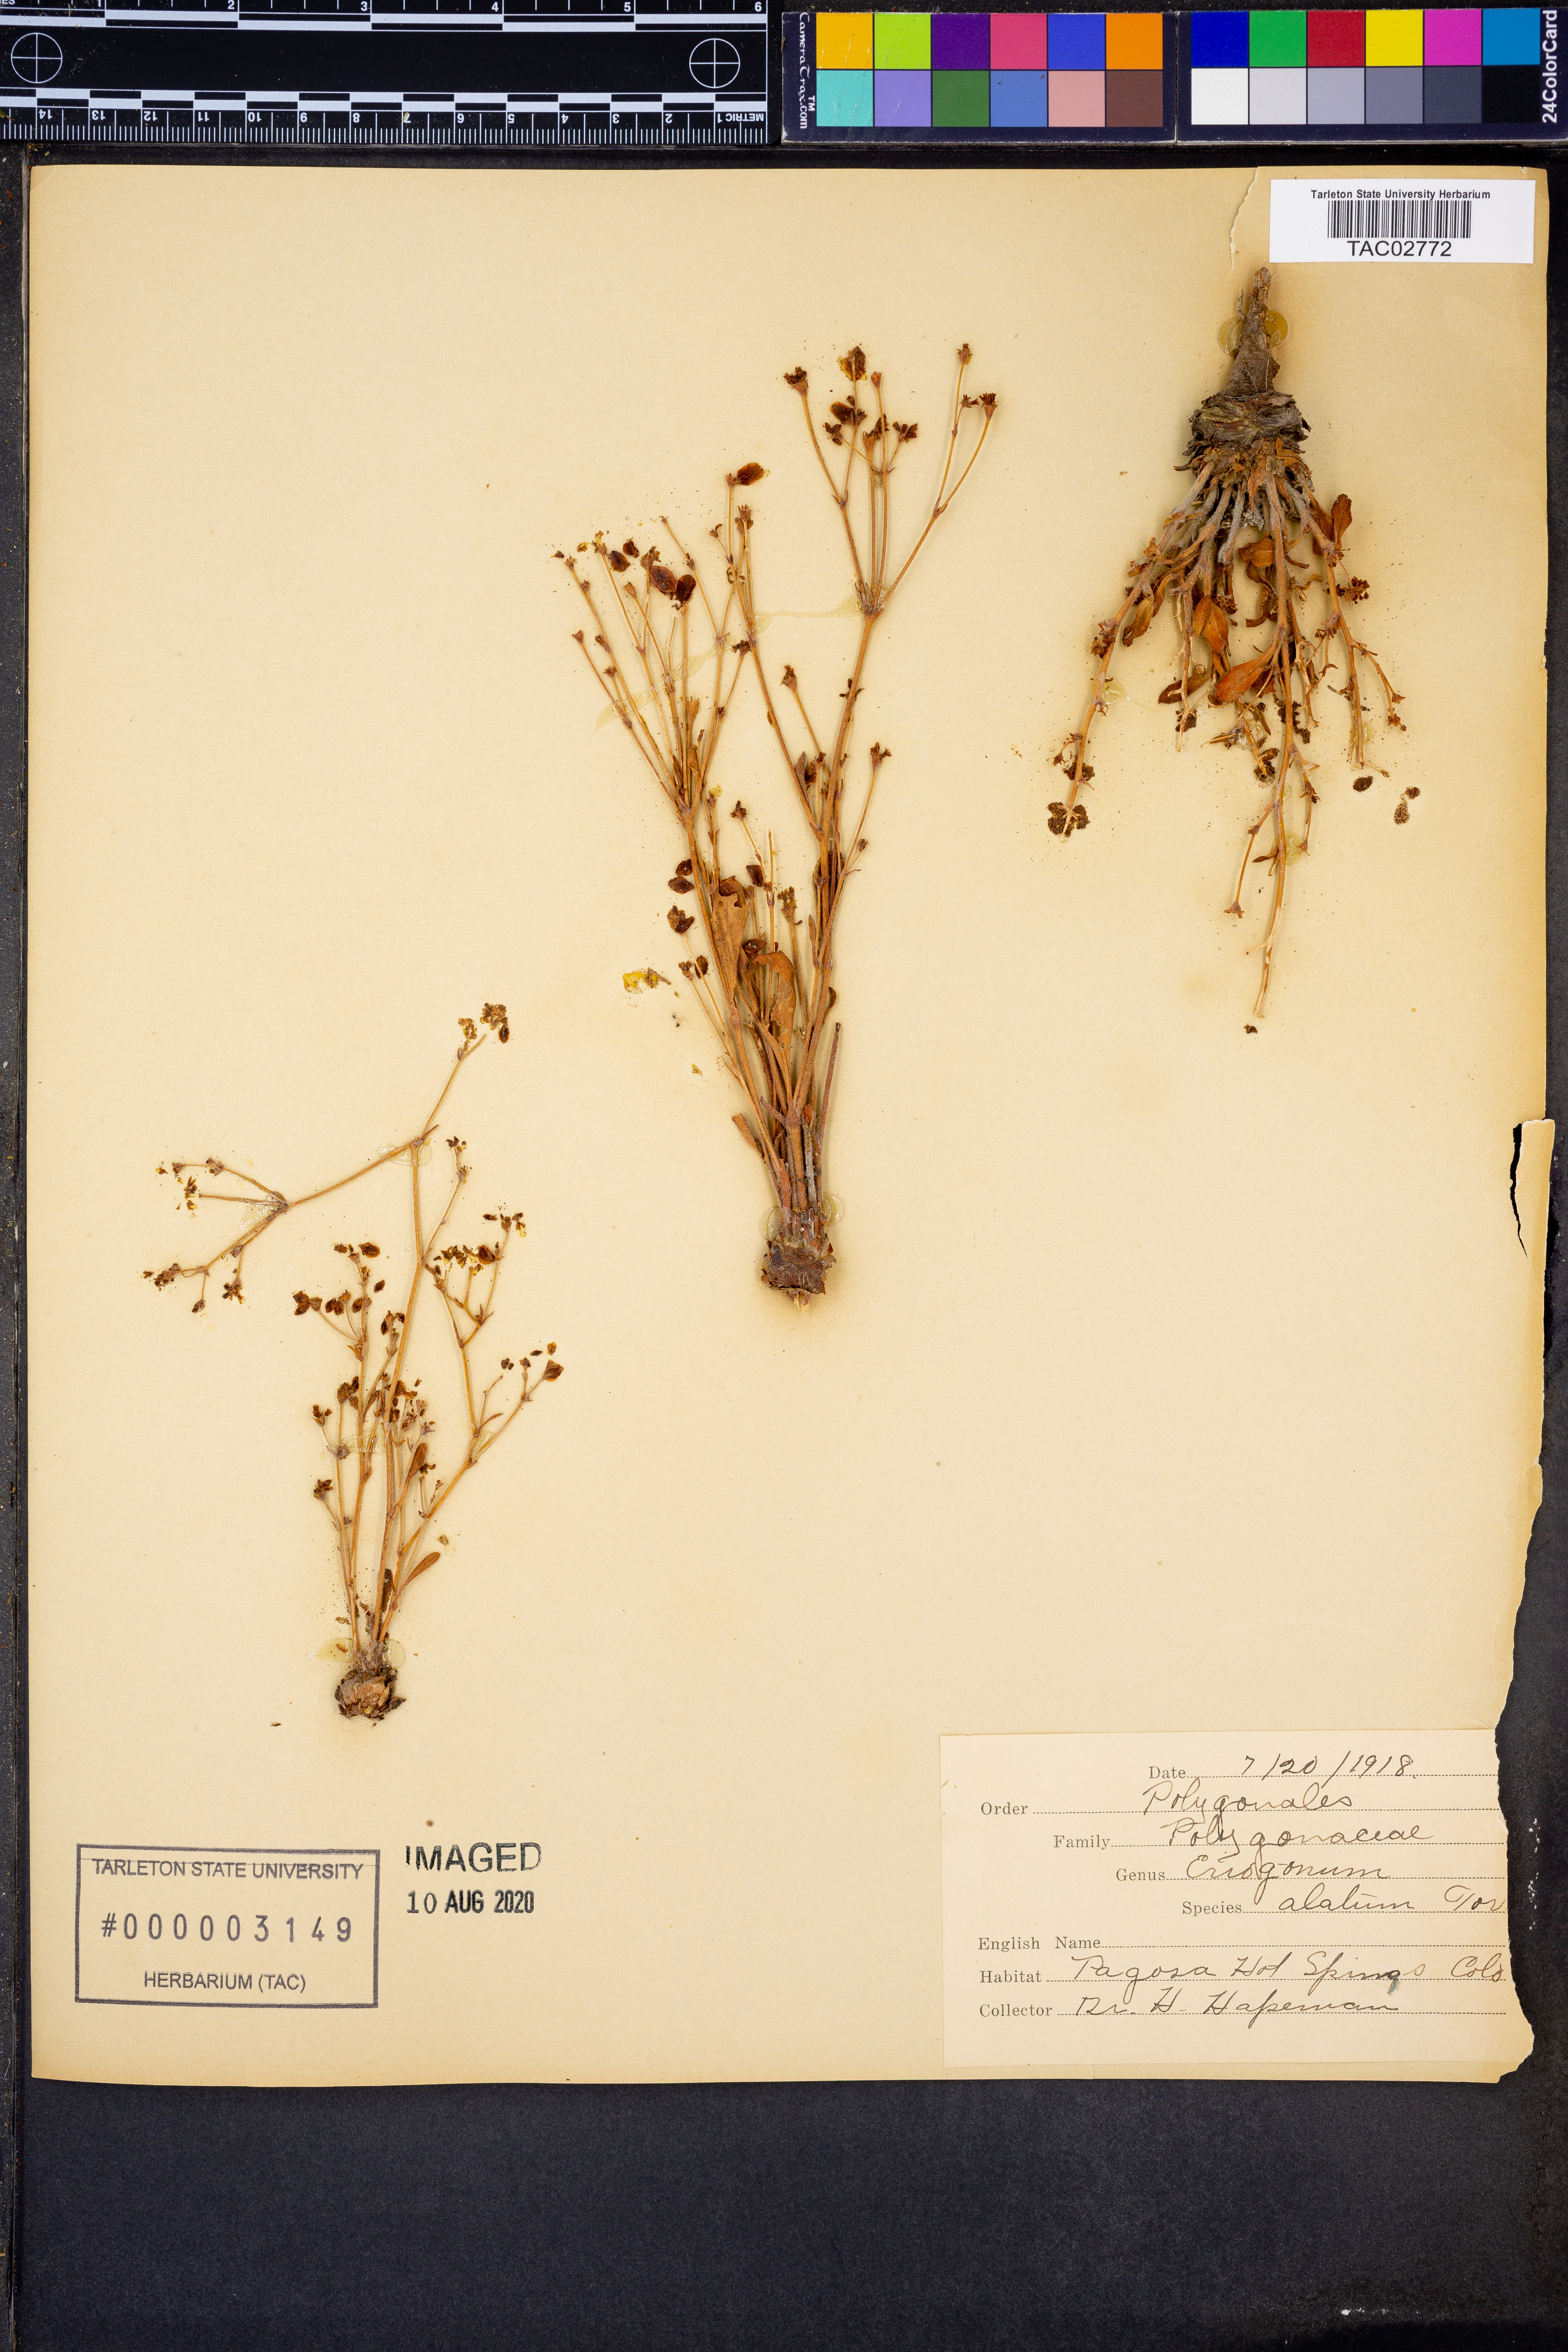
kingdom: Plantae
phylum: Tracheophyta
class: Magnoliopsida
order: Caryophyllales
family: Polygonaceae
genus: Eriogonum
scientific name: Eriogonum alatum
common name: Winged eriogonum
